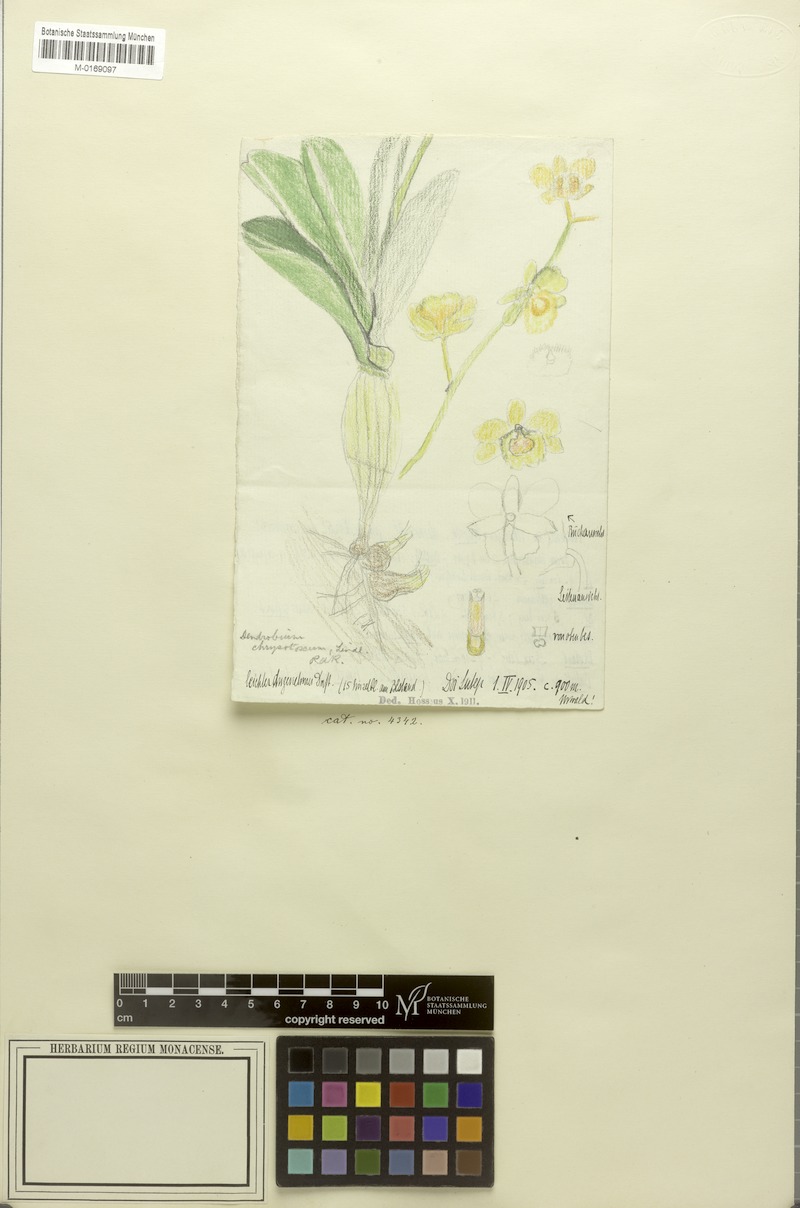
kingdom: Plantae
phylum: Tracheophyta
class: Liliopsida
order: Asparagales
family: Orchidaceae
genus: Dendrobium
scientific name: Dendrobium chrysotoxum
